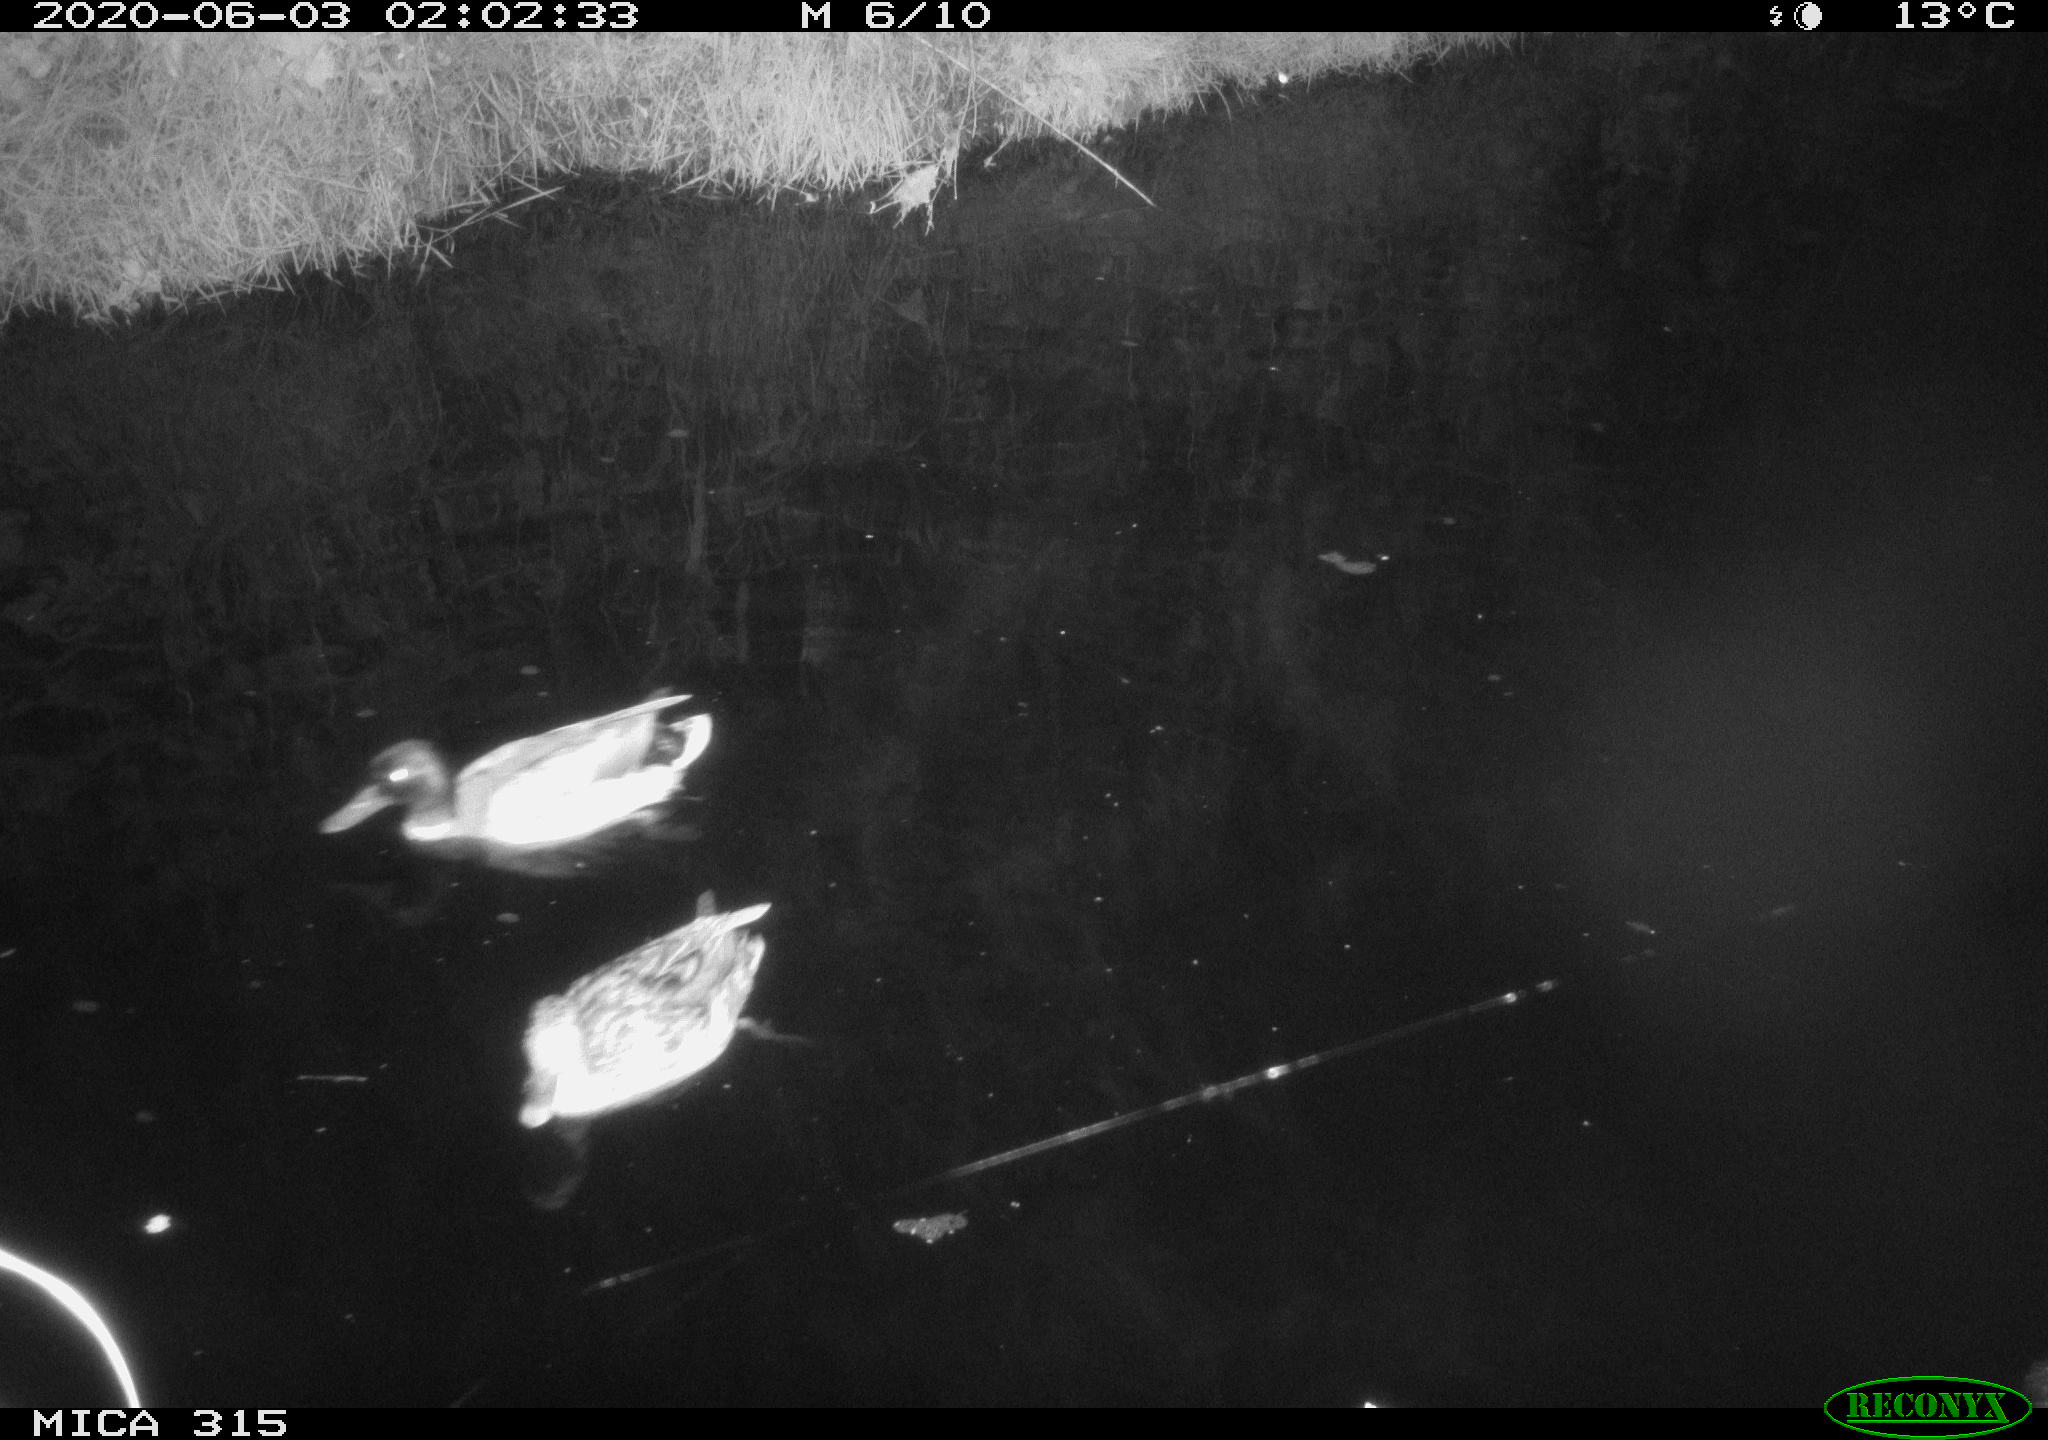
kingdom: Animalia
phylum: Chordata
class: Aves
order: Anseriformes
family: Anatidae
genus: Anas
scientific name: Anas platyrhynchos
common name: Mallard
